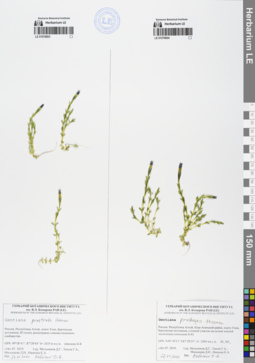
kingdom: Plantae
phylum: Tracheophyta
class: Magnoliopsida
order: Gentianales
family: Gentianaceae
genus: Gentiana
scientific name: Gentiana prostrata
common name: Moss gentian
